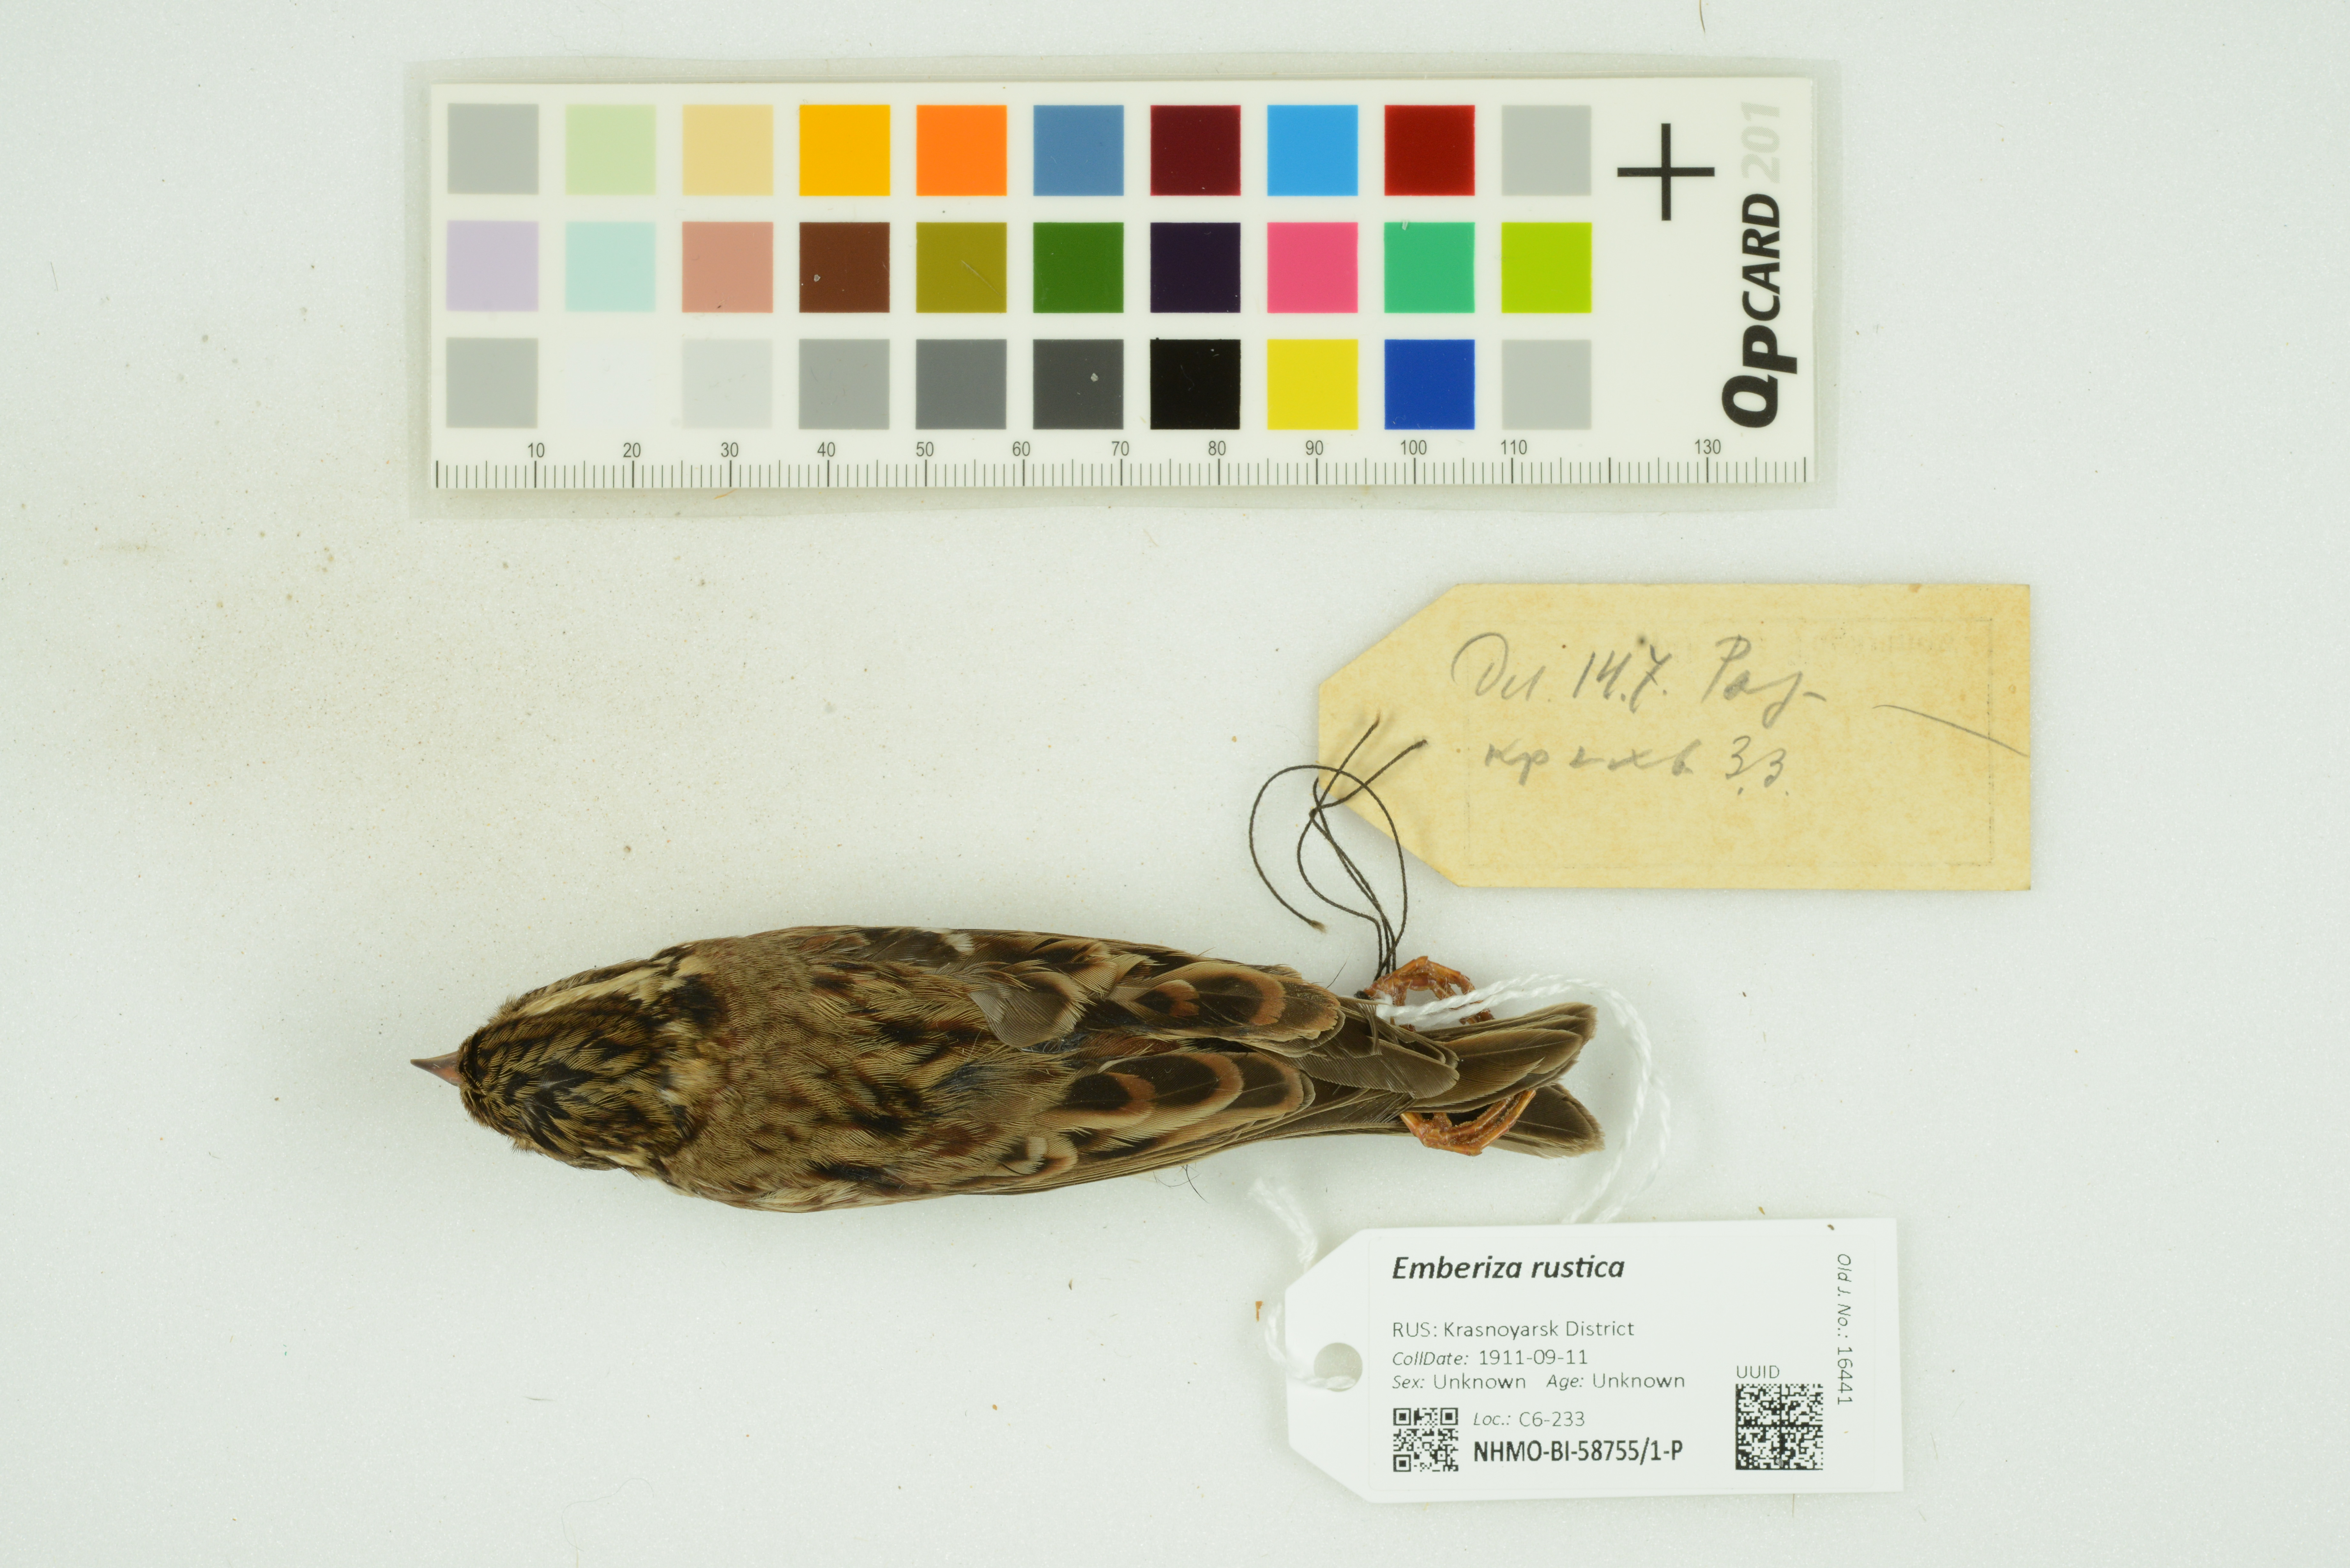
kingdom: Animalia
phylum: Chordata
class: Aves
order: Passeriformes
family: Emberizidae
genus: Emberiza
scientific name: Emberiza rustica
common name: Rustic bunting
